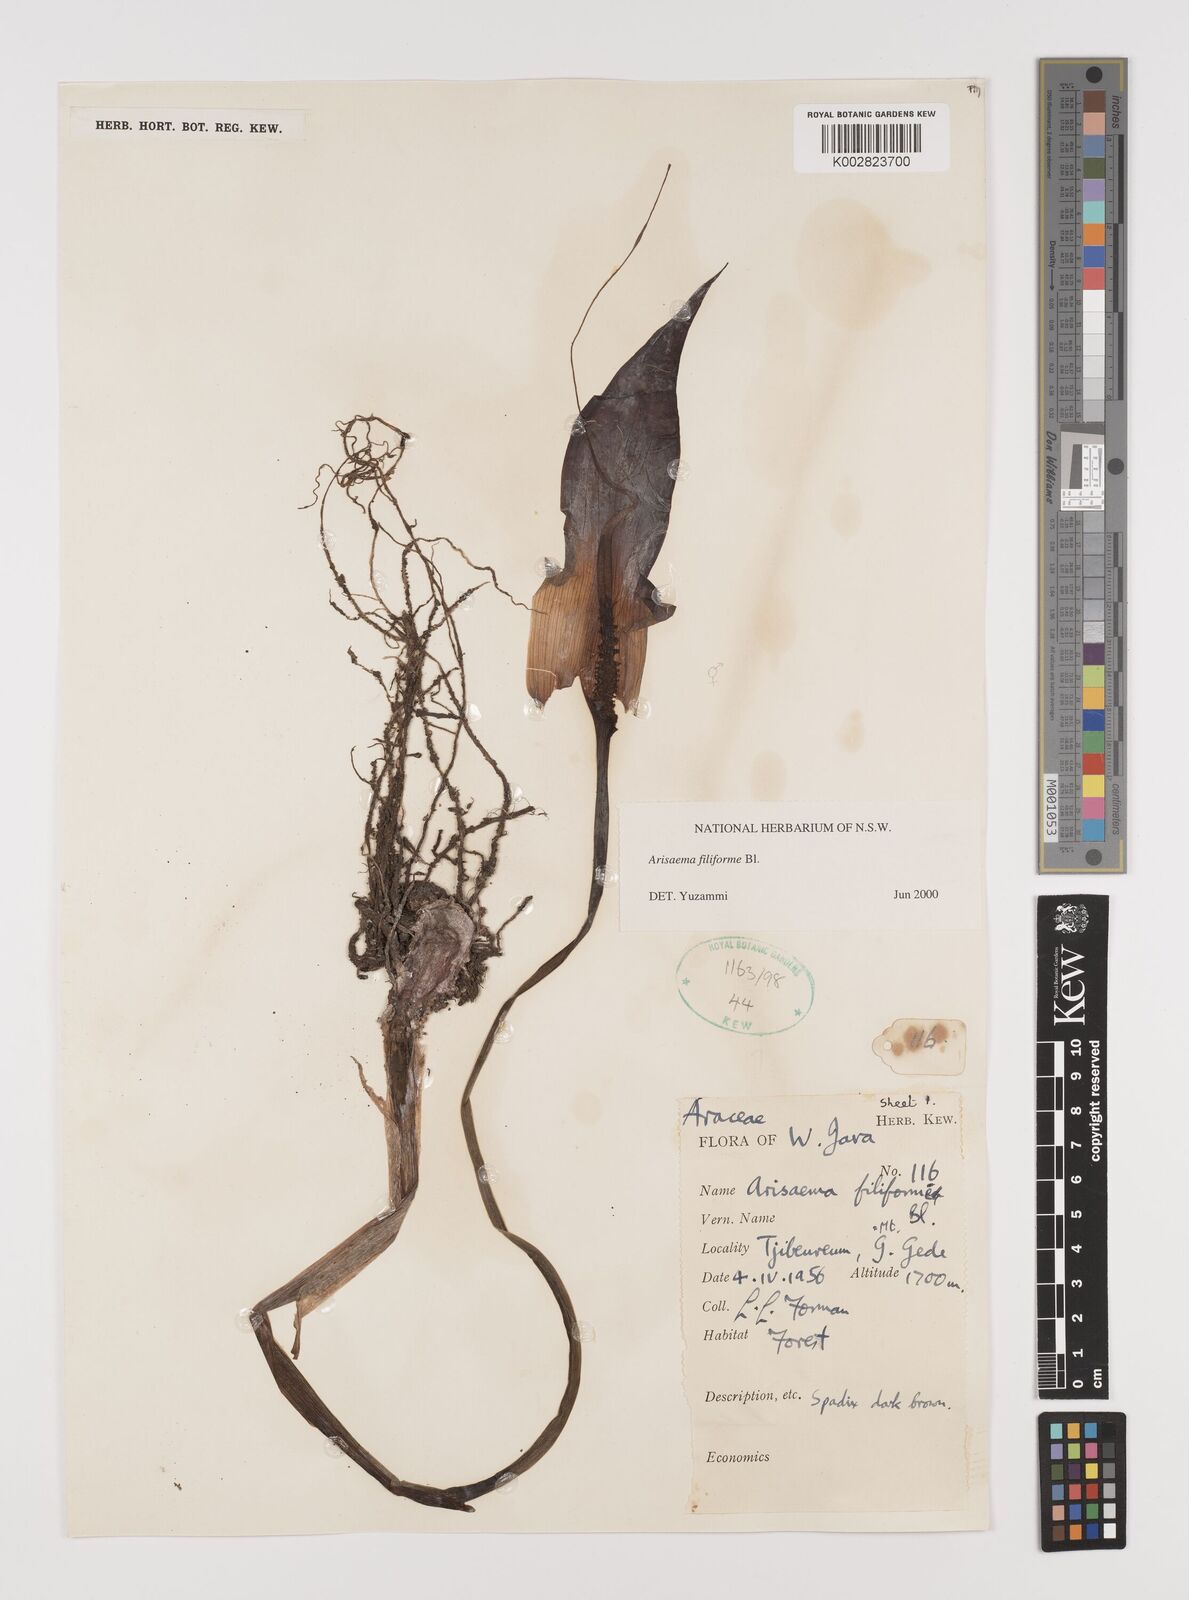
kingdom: Plantae
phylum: Tracheophyta
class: Liliopsida
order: Alismatales
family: Araceae
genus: Arisaema
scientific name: Arisaema filiforme
